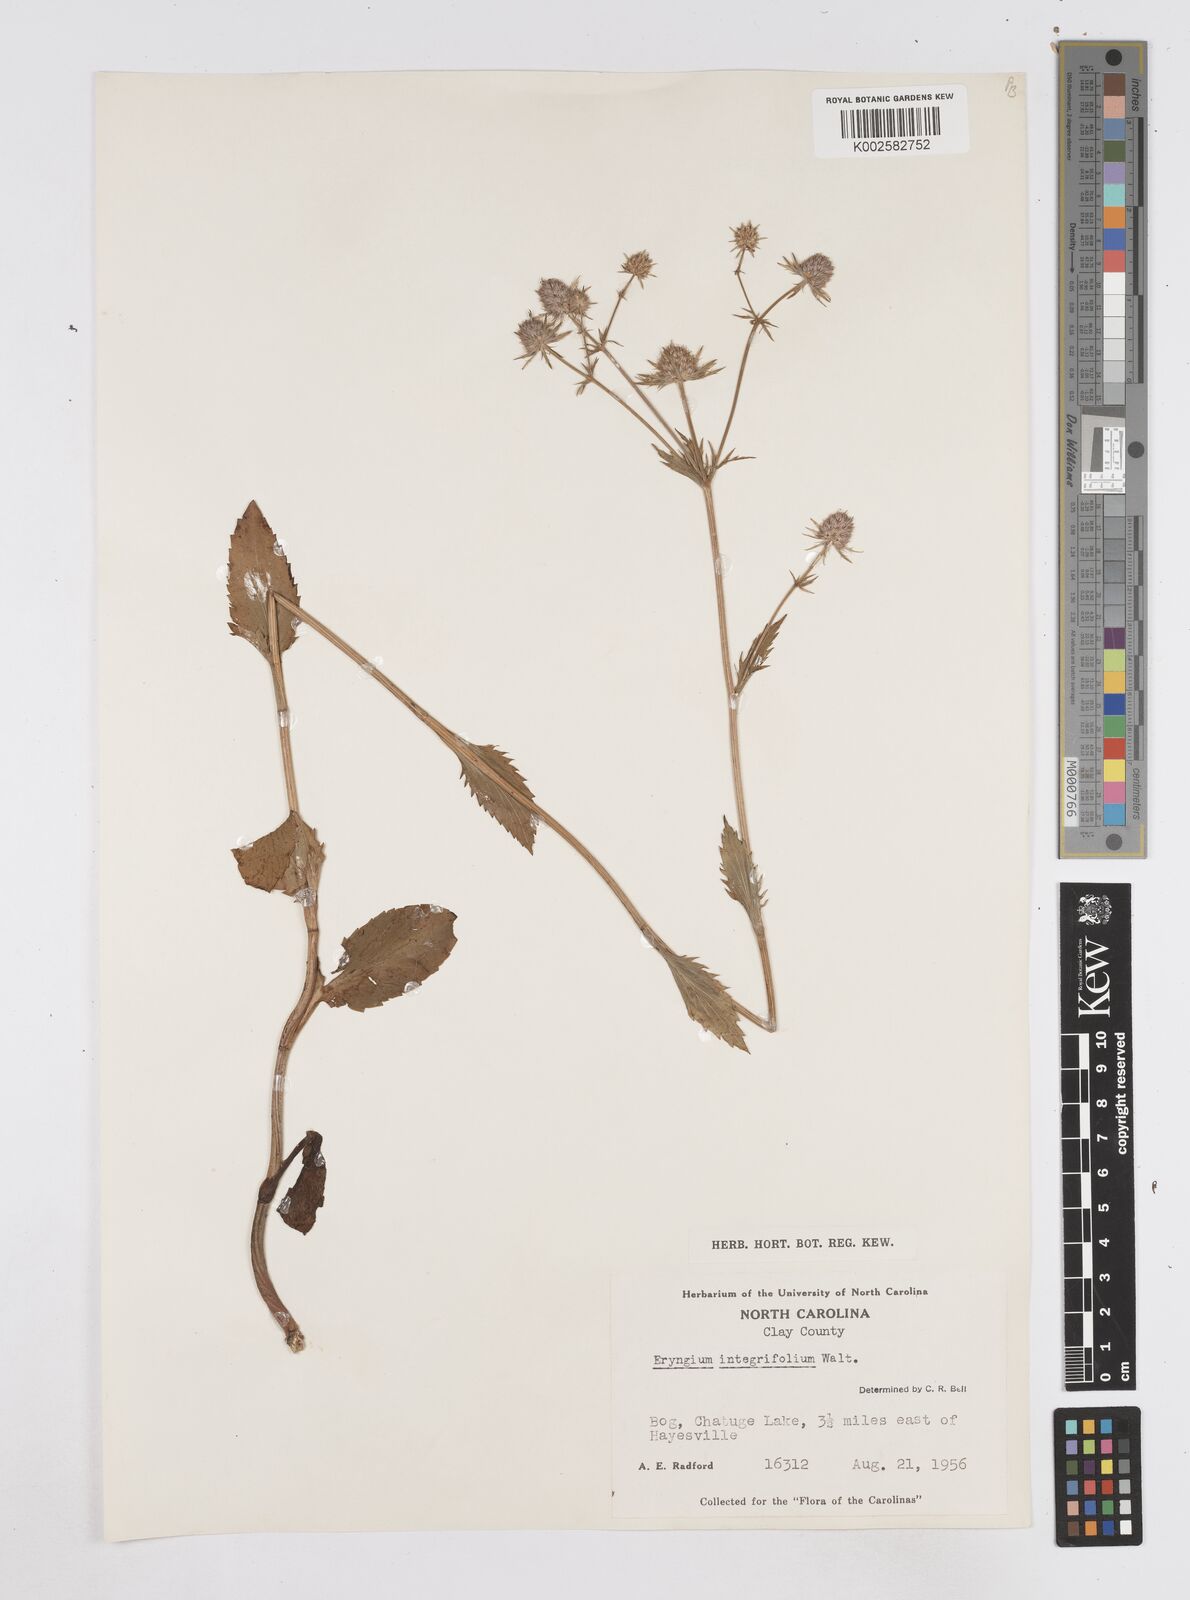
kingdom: Plantae
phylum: Tracheophyta
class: Magnoliopsida
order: Apiales
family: Apiaceae
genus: Eryngium
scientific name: Eryngium integrifolium
